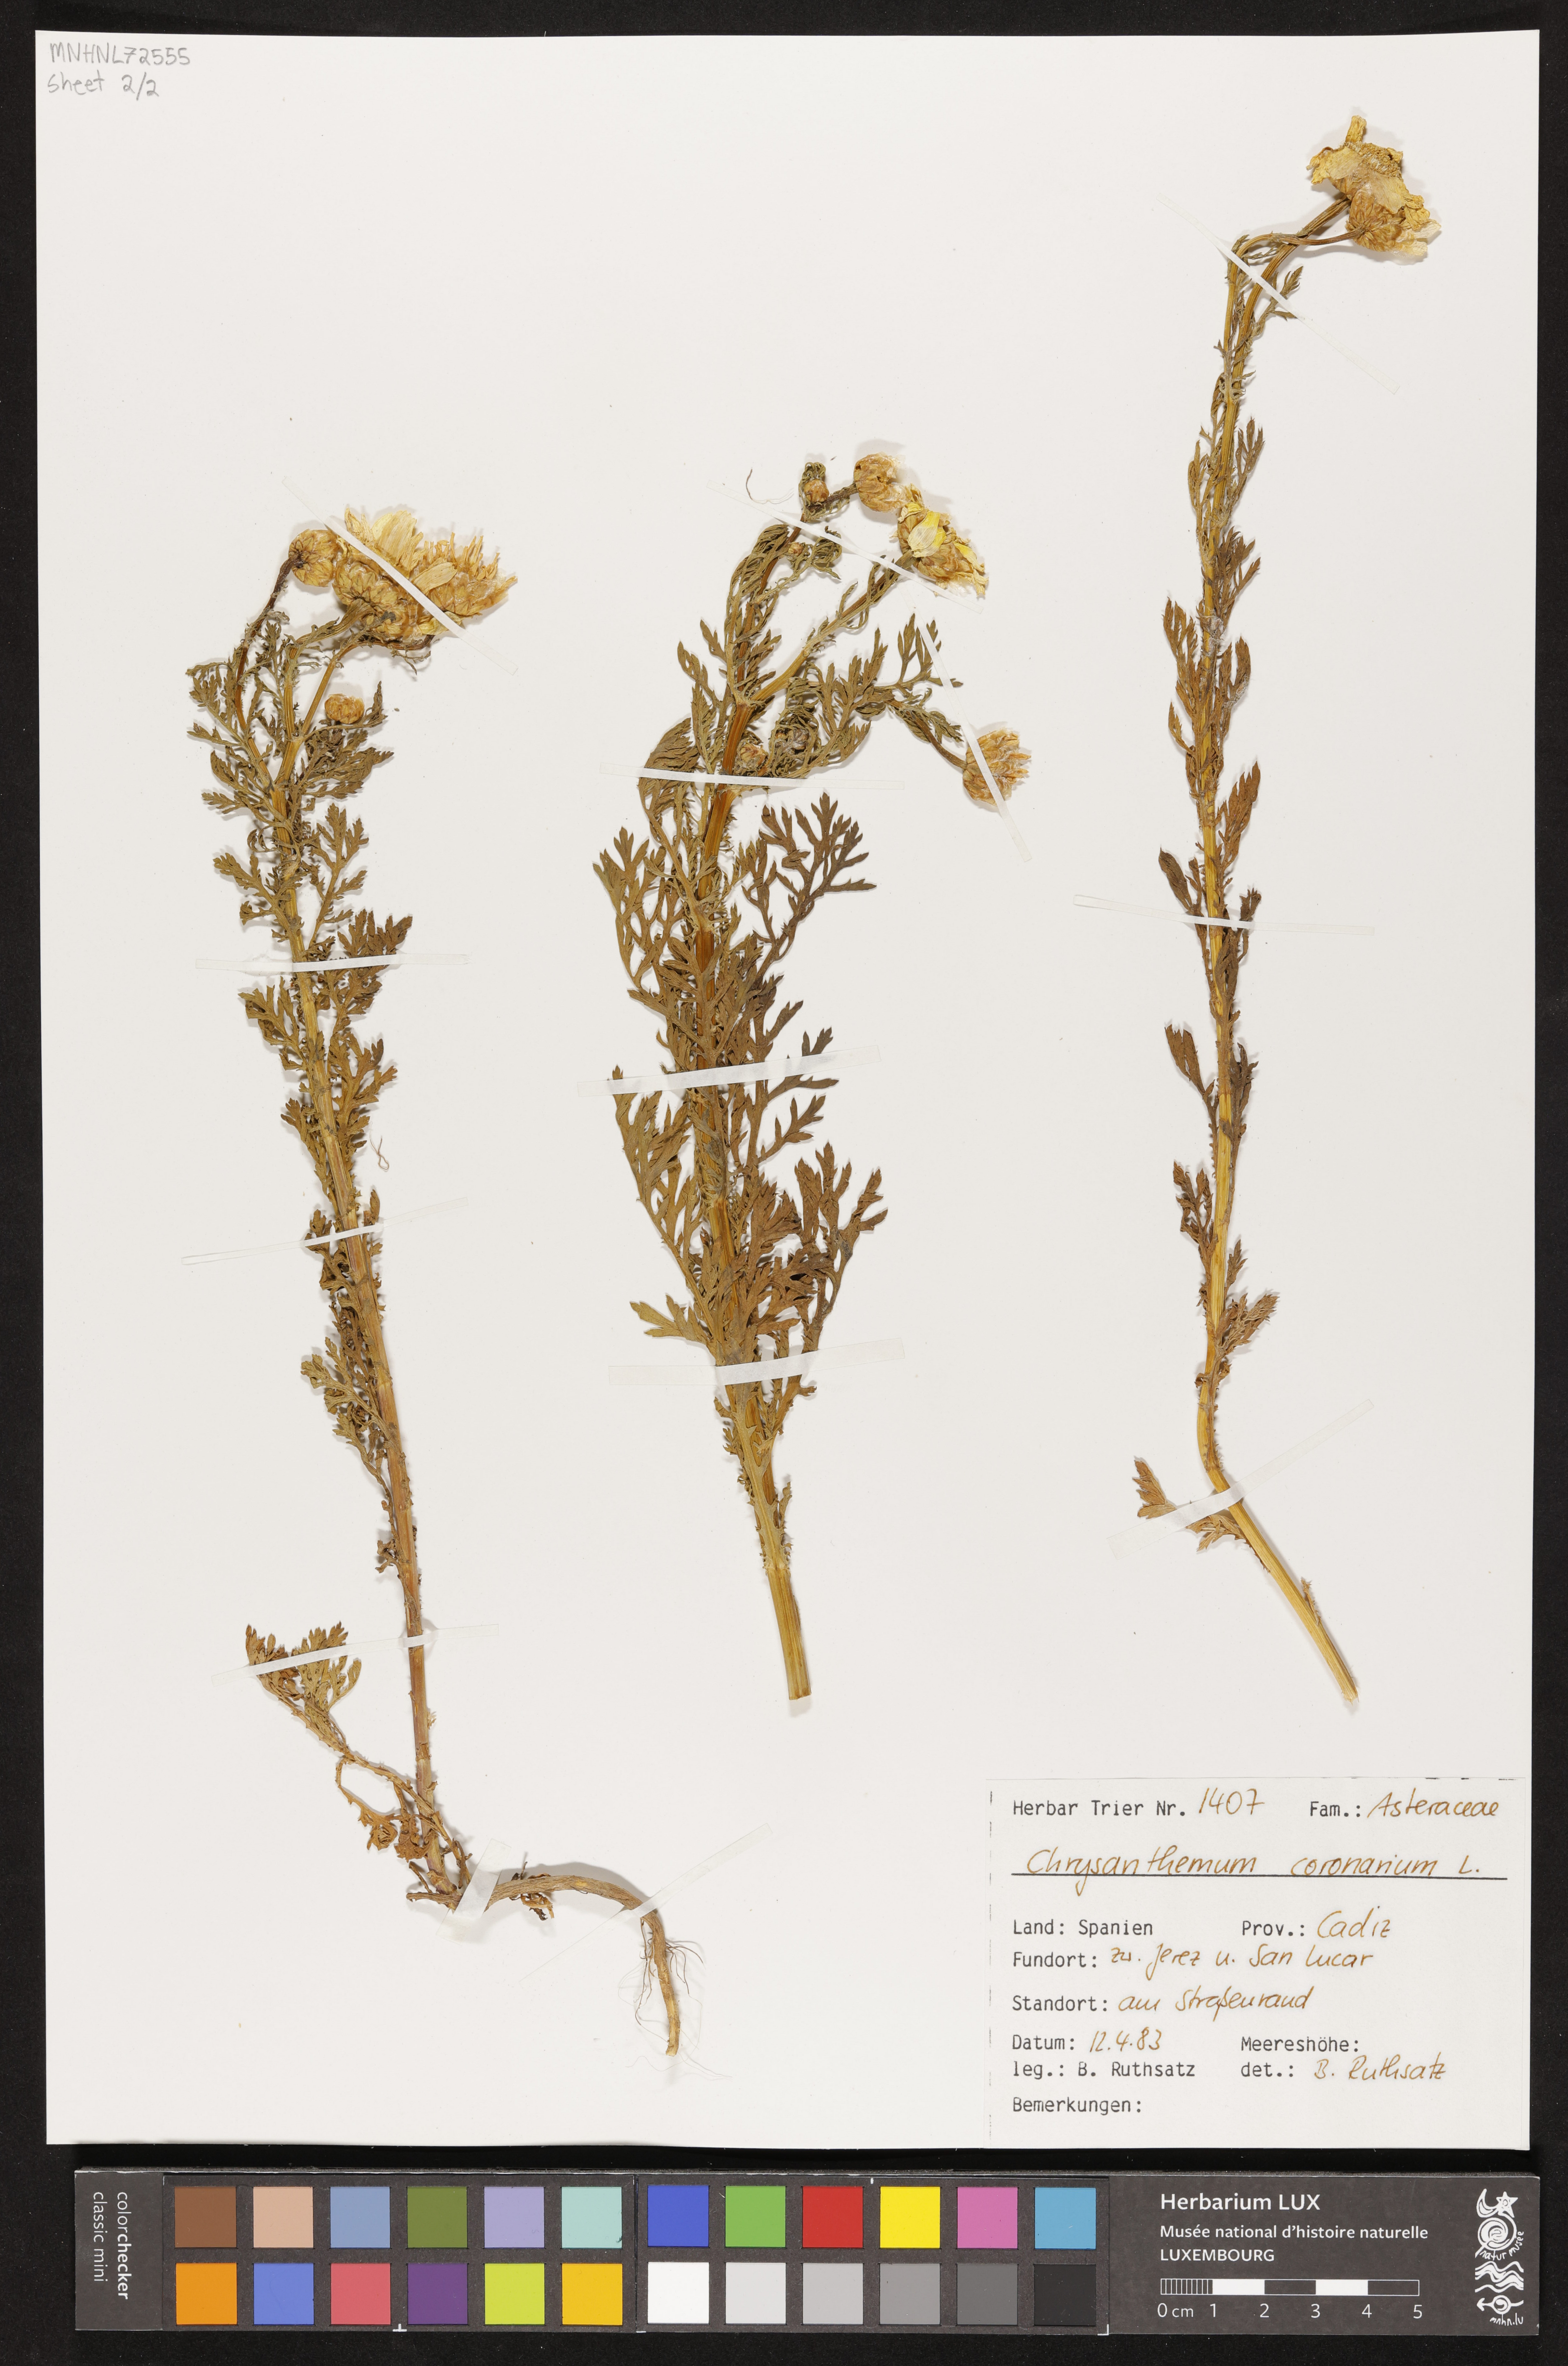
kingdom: Plantae
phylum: Tracheophyta
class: Magnoliopsida
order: Asterales
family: Asteraceae
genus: Glebionis
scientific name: Glebionis coronaria
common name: Crowndaisy
